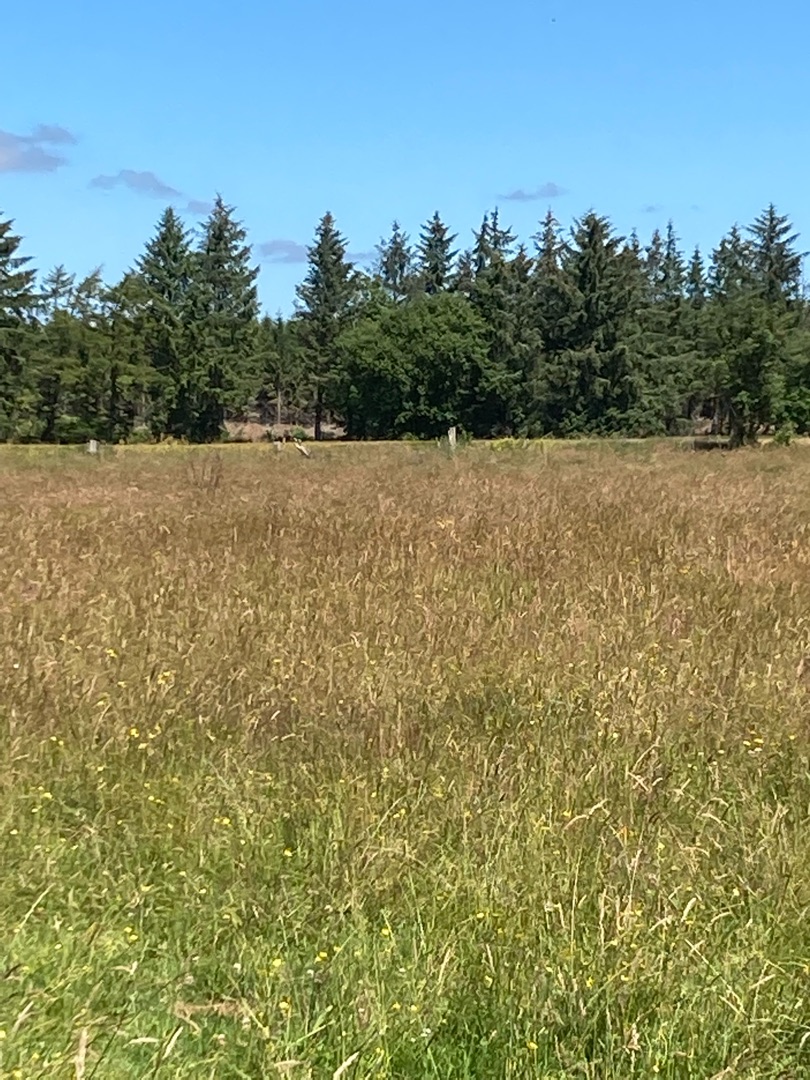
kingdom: Animalia
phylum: Chordata
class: Aves
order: Gruiformes
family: Gruidae
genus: Grus
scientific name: Grus grus
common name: Trane
